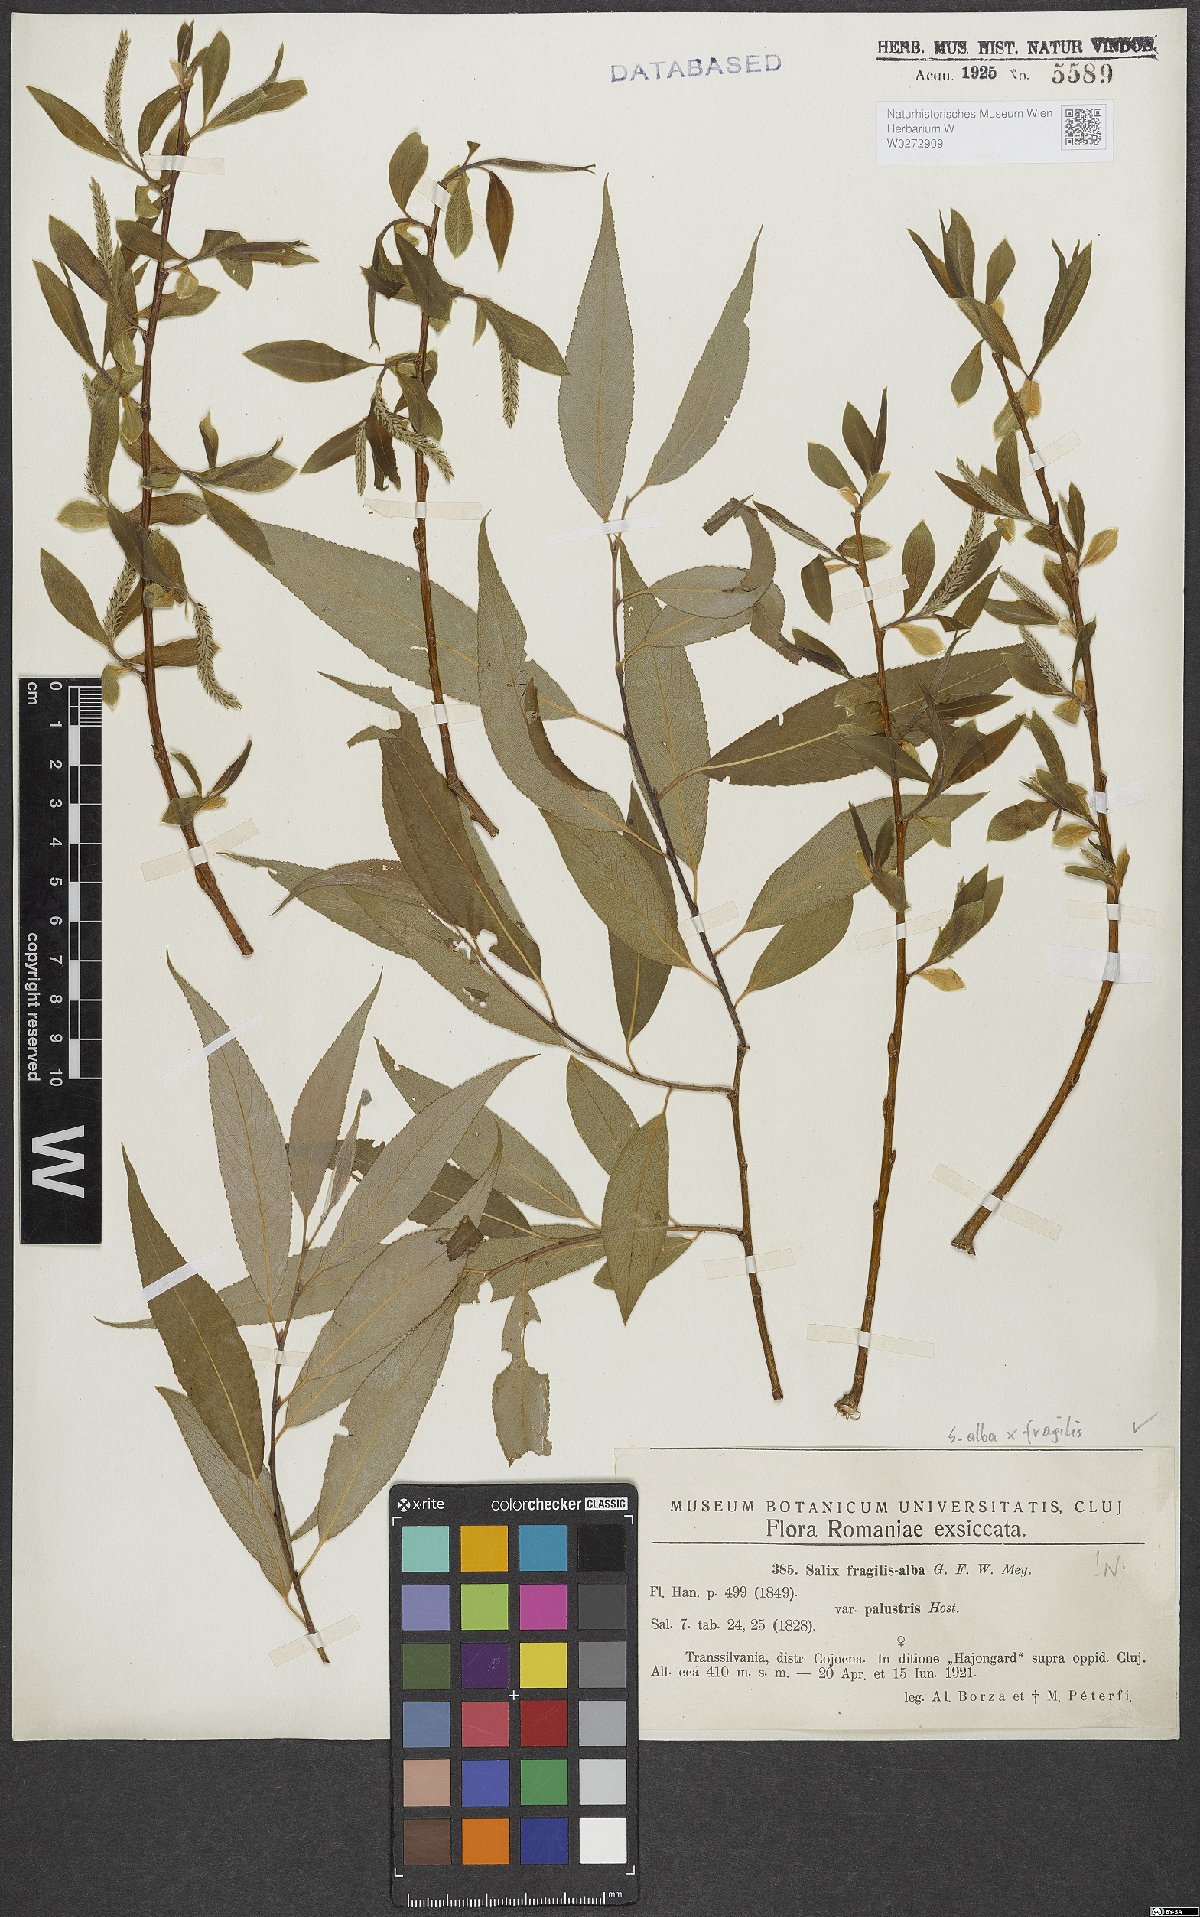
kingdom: Plantae
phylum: Tracheophyta
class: Magnoliopsida
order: Malpighiales
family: Salicaceae
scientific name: Salicaceae
